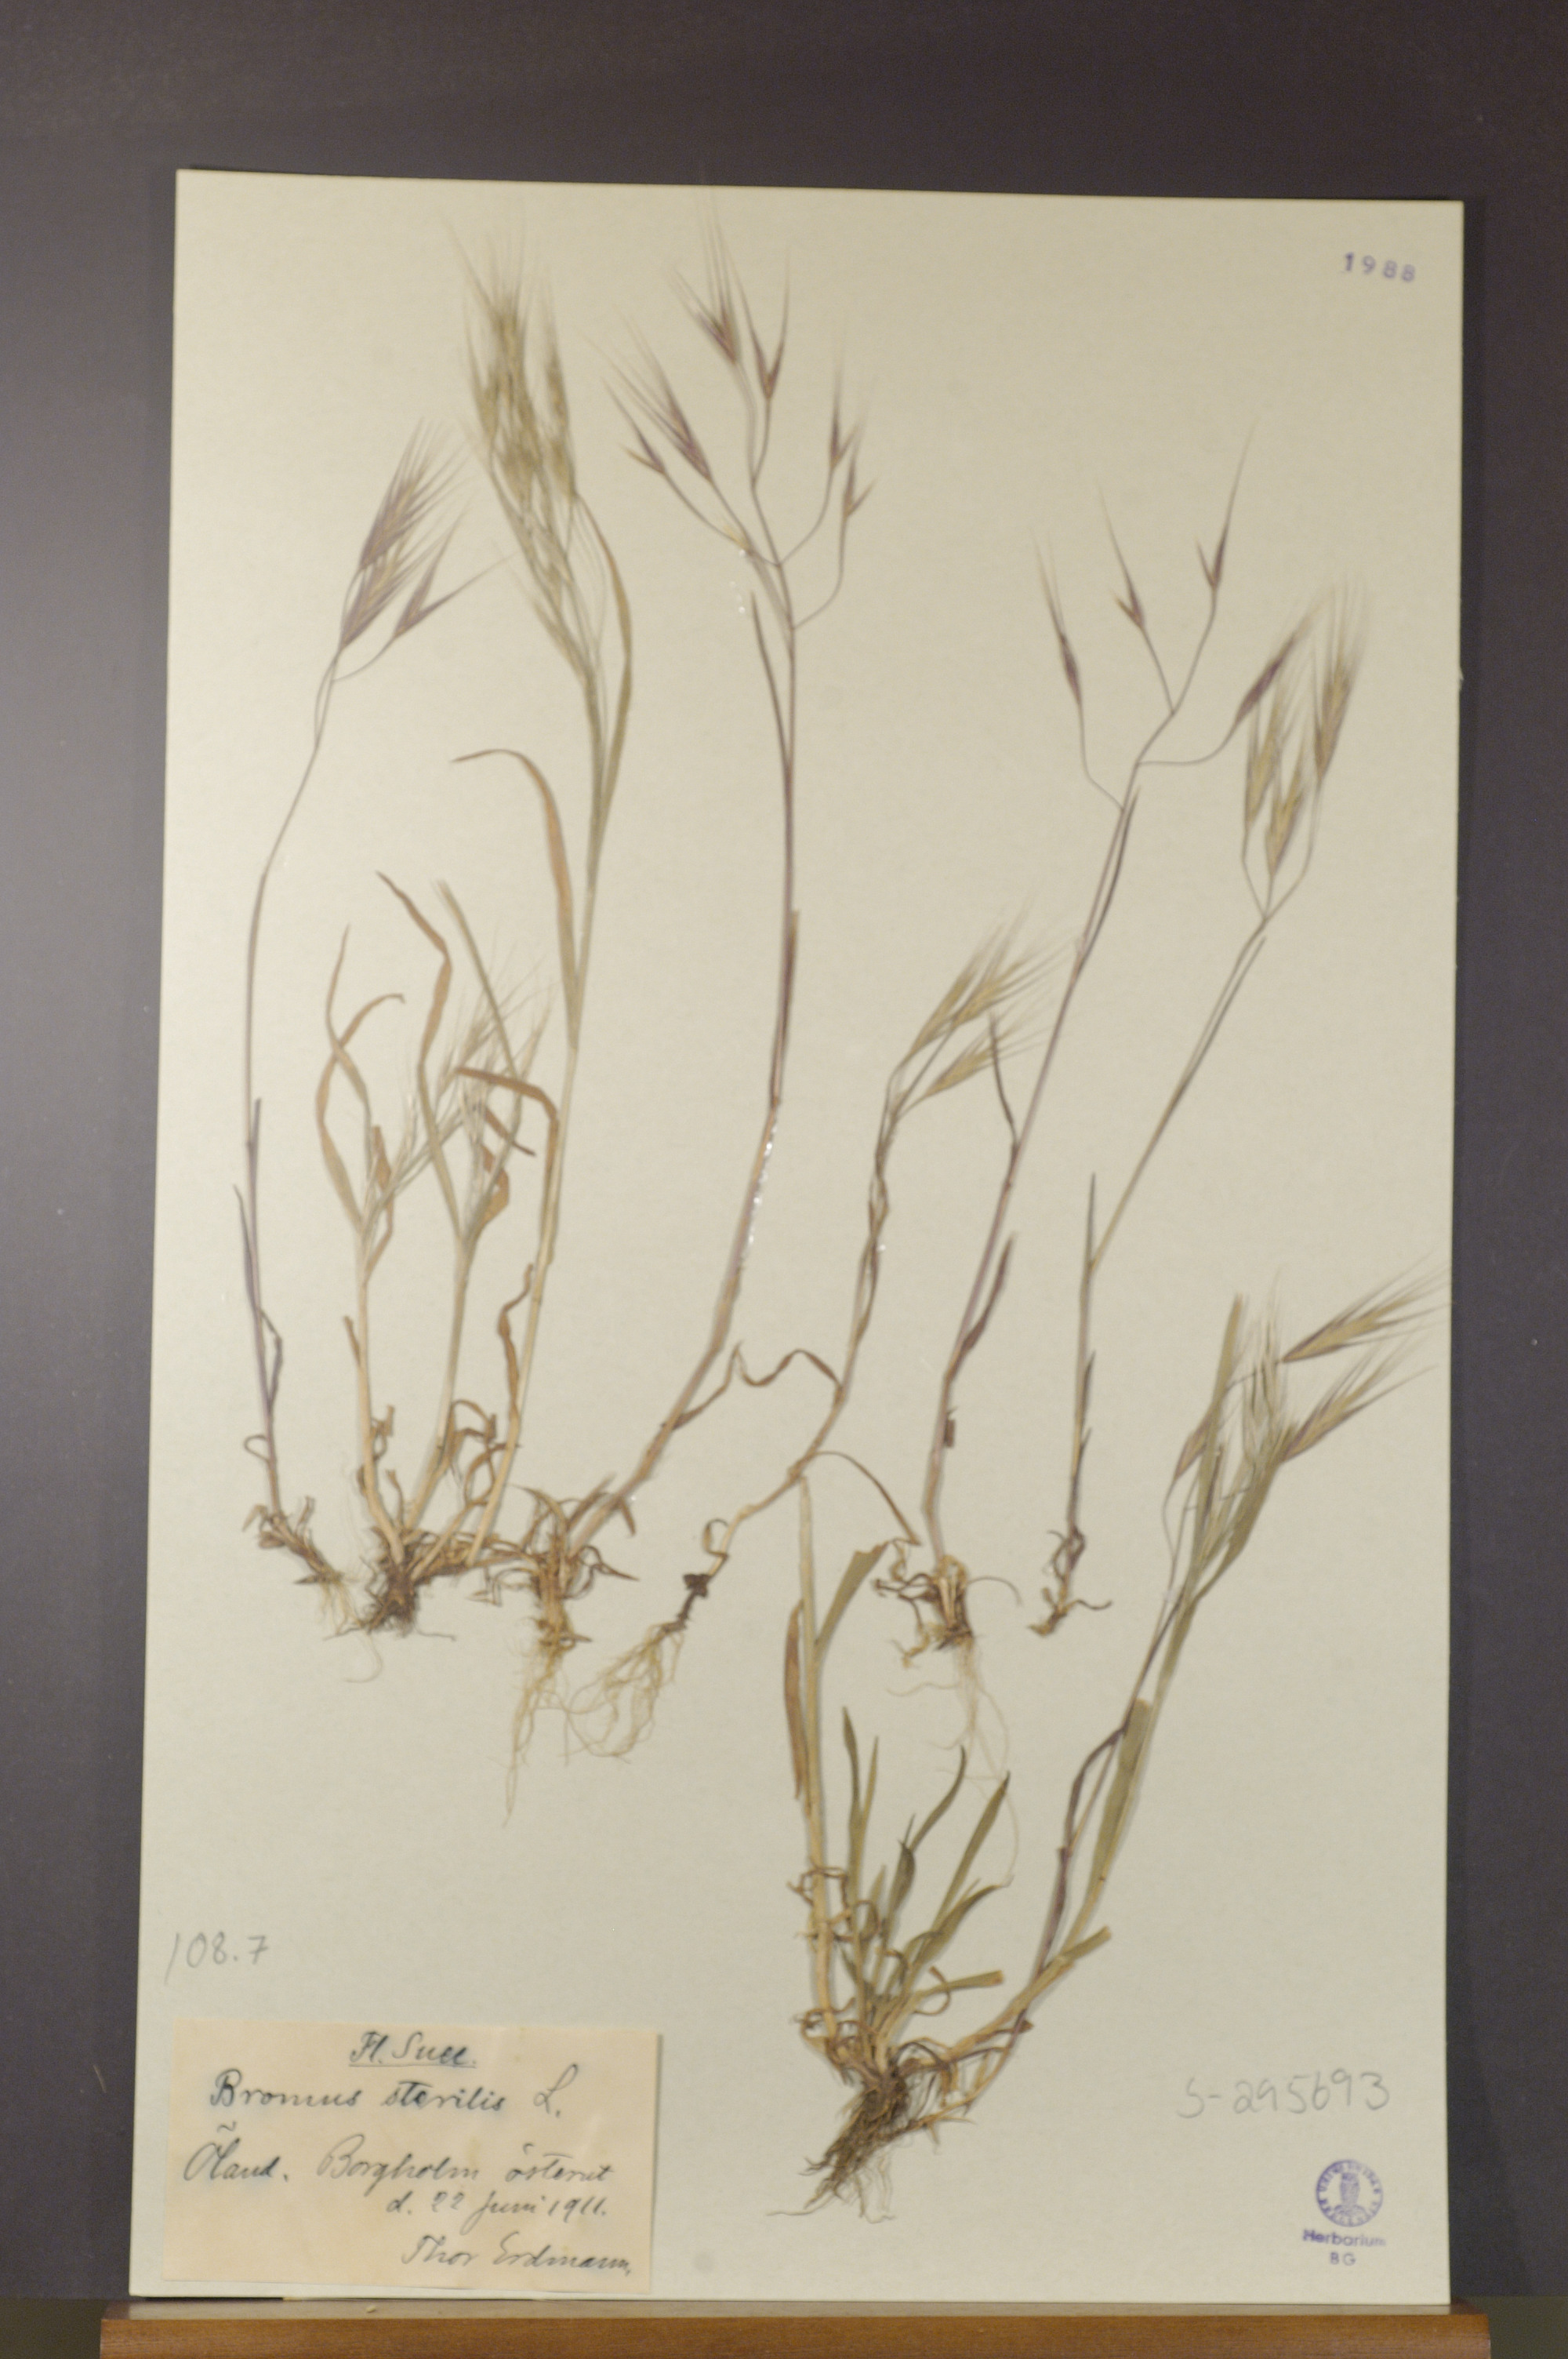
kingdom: Plantae
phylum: Tracheophyta
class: Liliopsida
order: Poales
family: Poaceae
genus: Bromus
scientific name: Bromus sterilis
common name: Poverty brome
